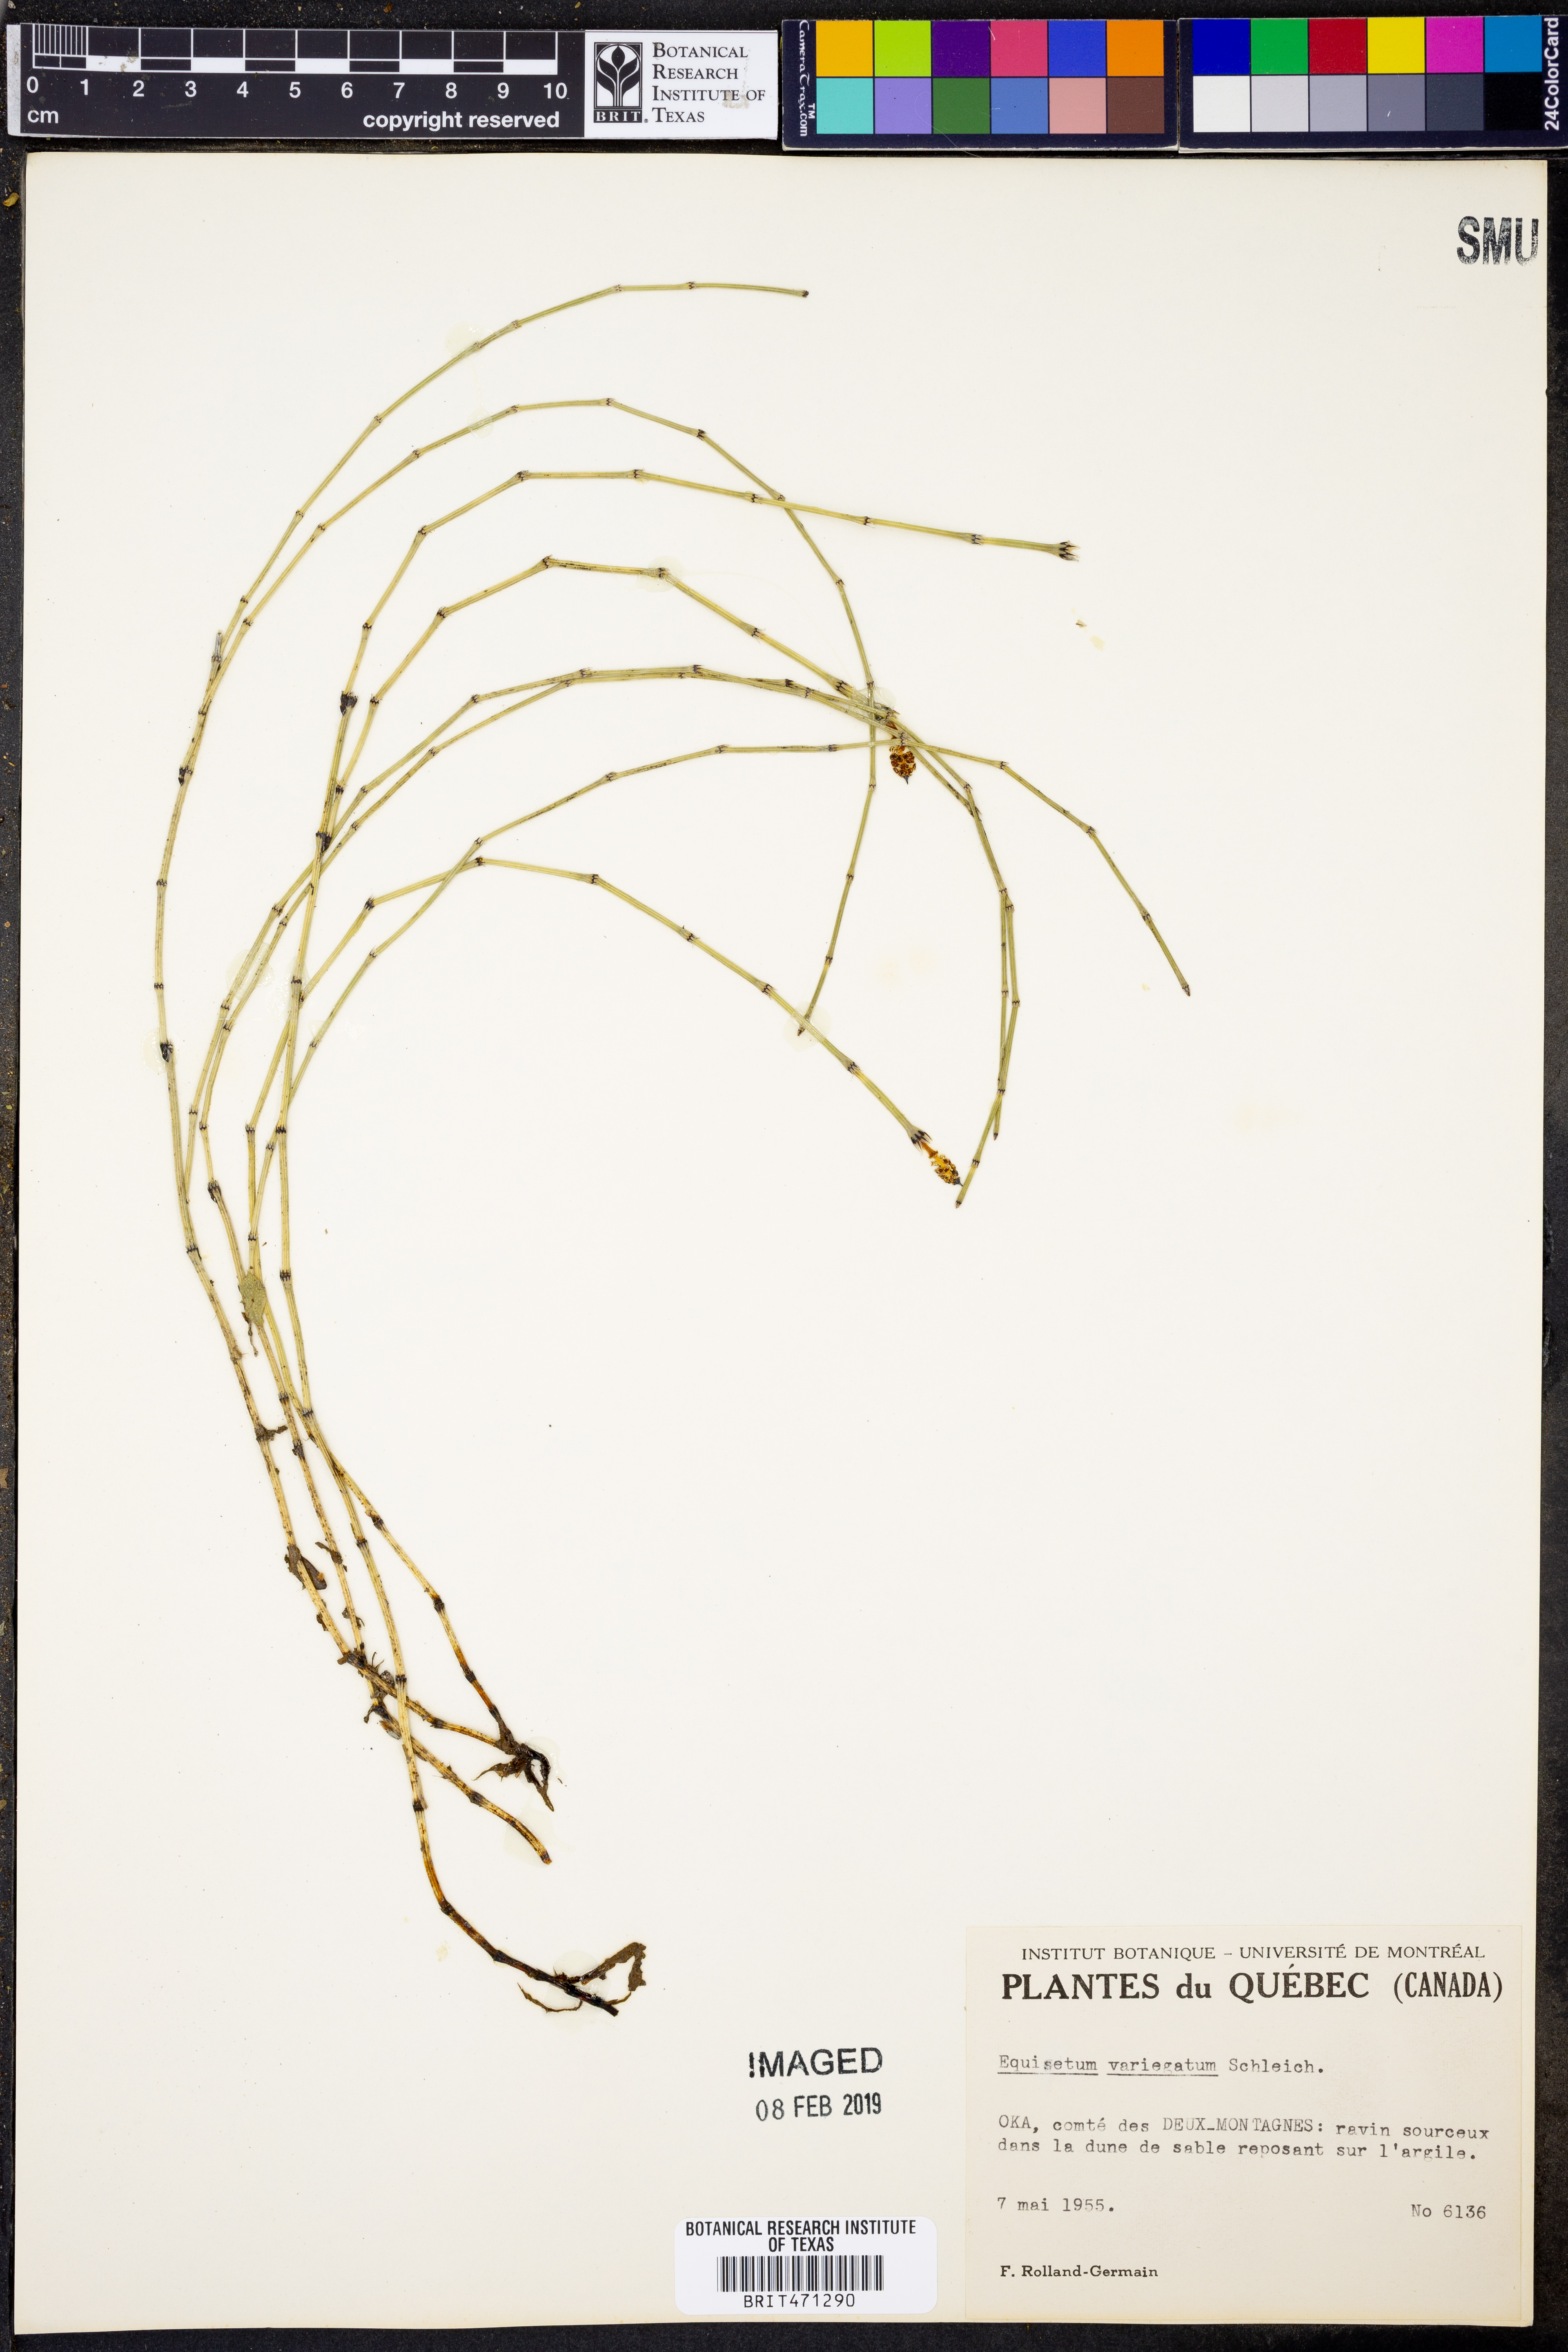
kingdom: Plantae
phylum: Tracheophyta
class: Polypodiopsida
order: Equisetales
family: Equisetaceae
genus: Equisetum
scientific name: Equisetum variegatum
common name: Variegated horsetail
